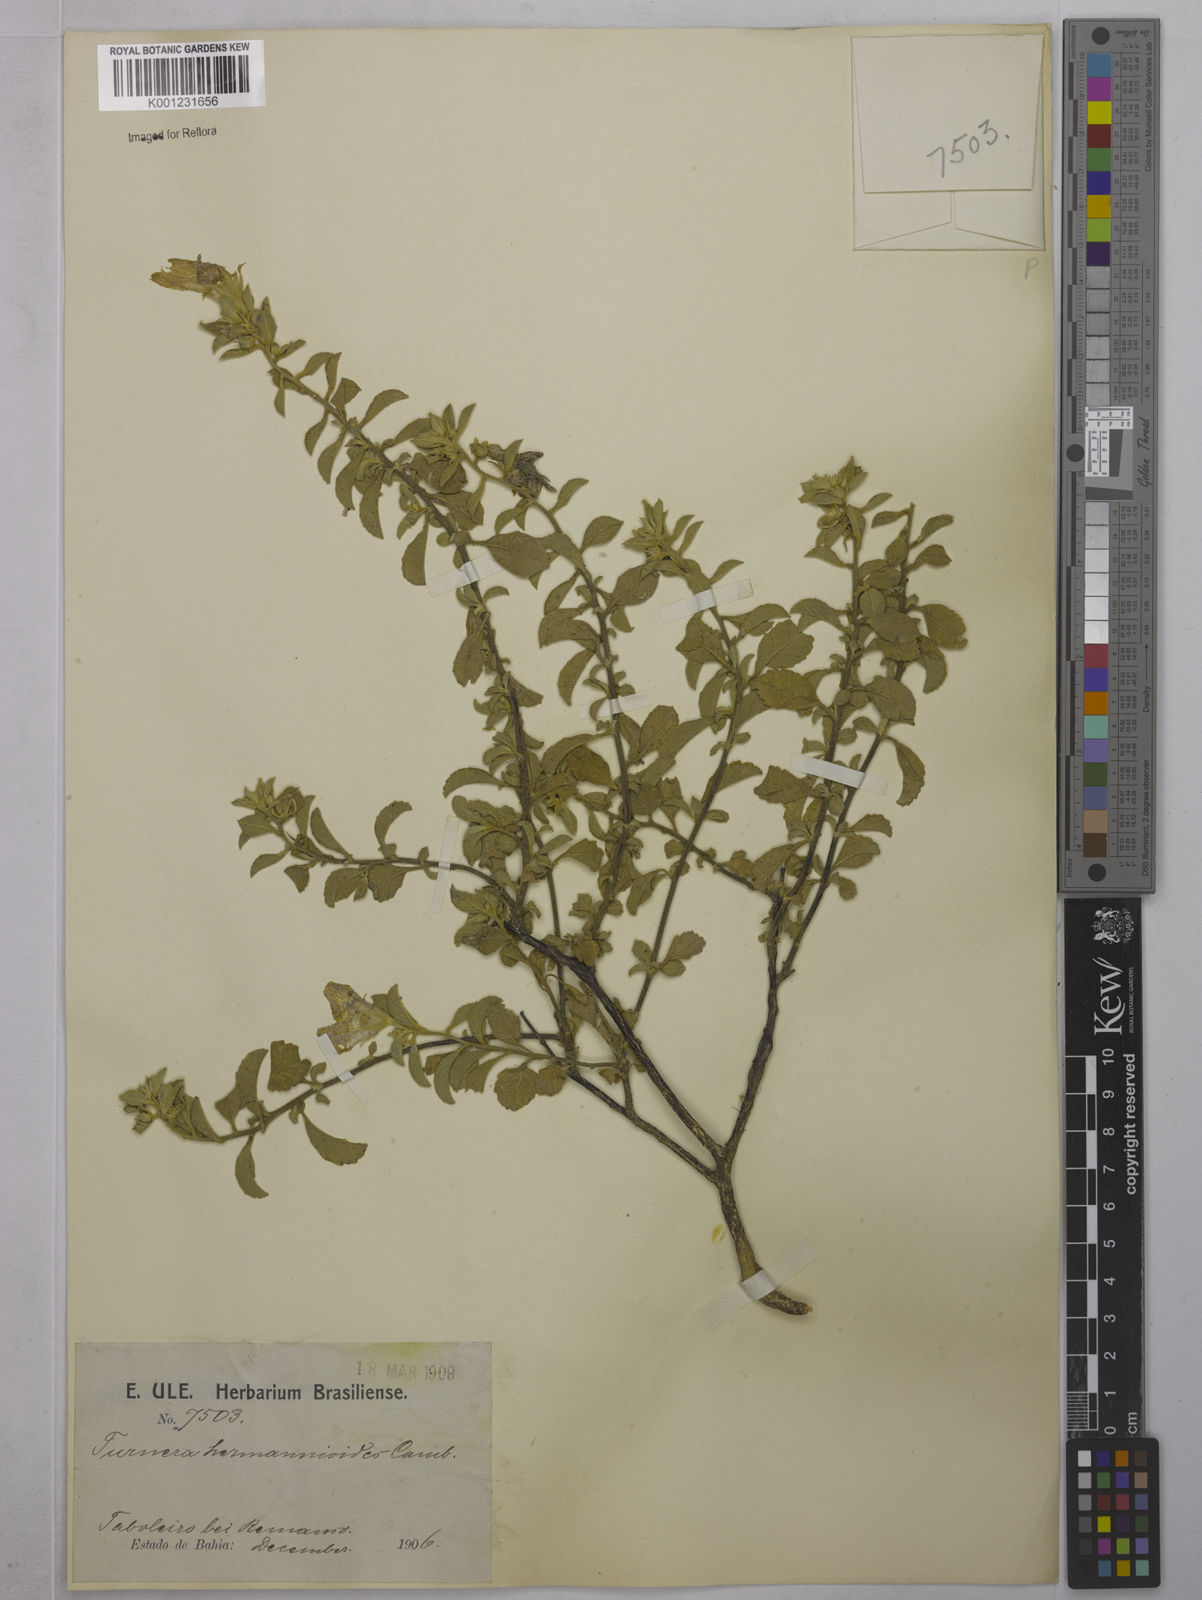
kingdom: Plantae
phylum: Tracheophyta
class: Magnoliopsida
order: Malpighiales
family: Turneraceae
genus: Turnera
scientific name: Turnera hermannioides
